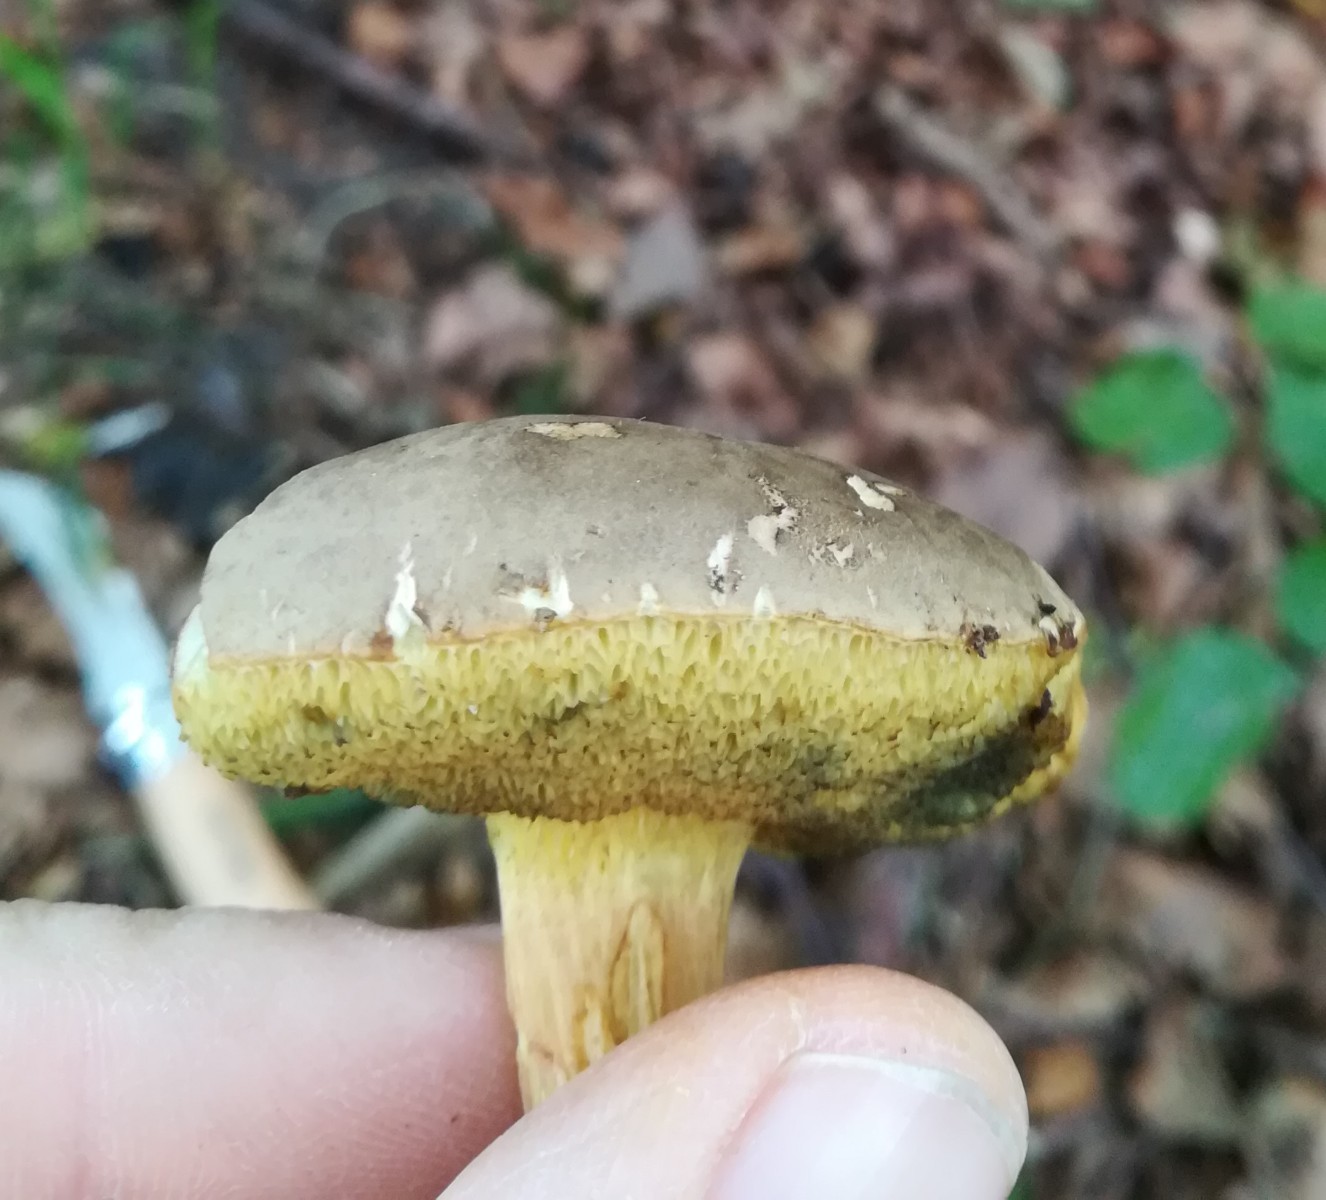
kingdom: Fungi
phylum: Basidiomycota
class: Agaricomycetes
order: Boletales
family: Boletaceae
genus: Xerocomellus
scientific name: Xerocomellus cisalpinus
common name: finsprukken rørhat
